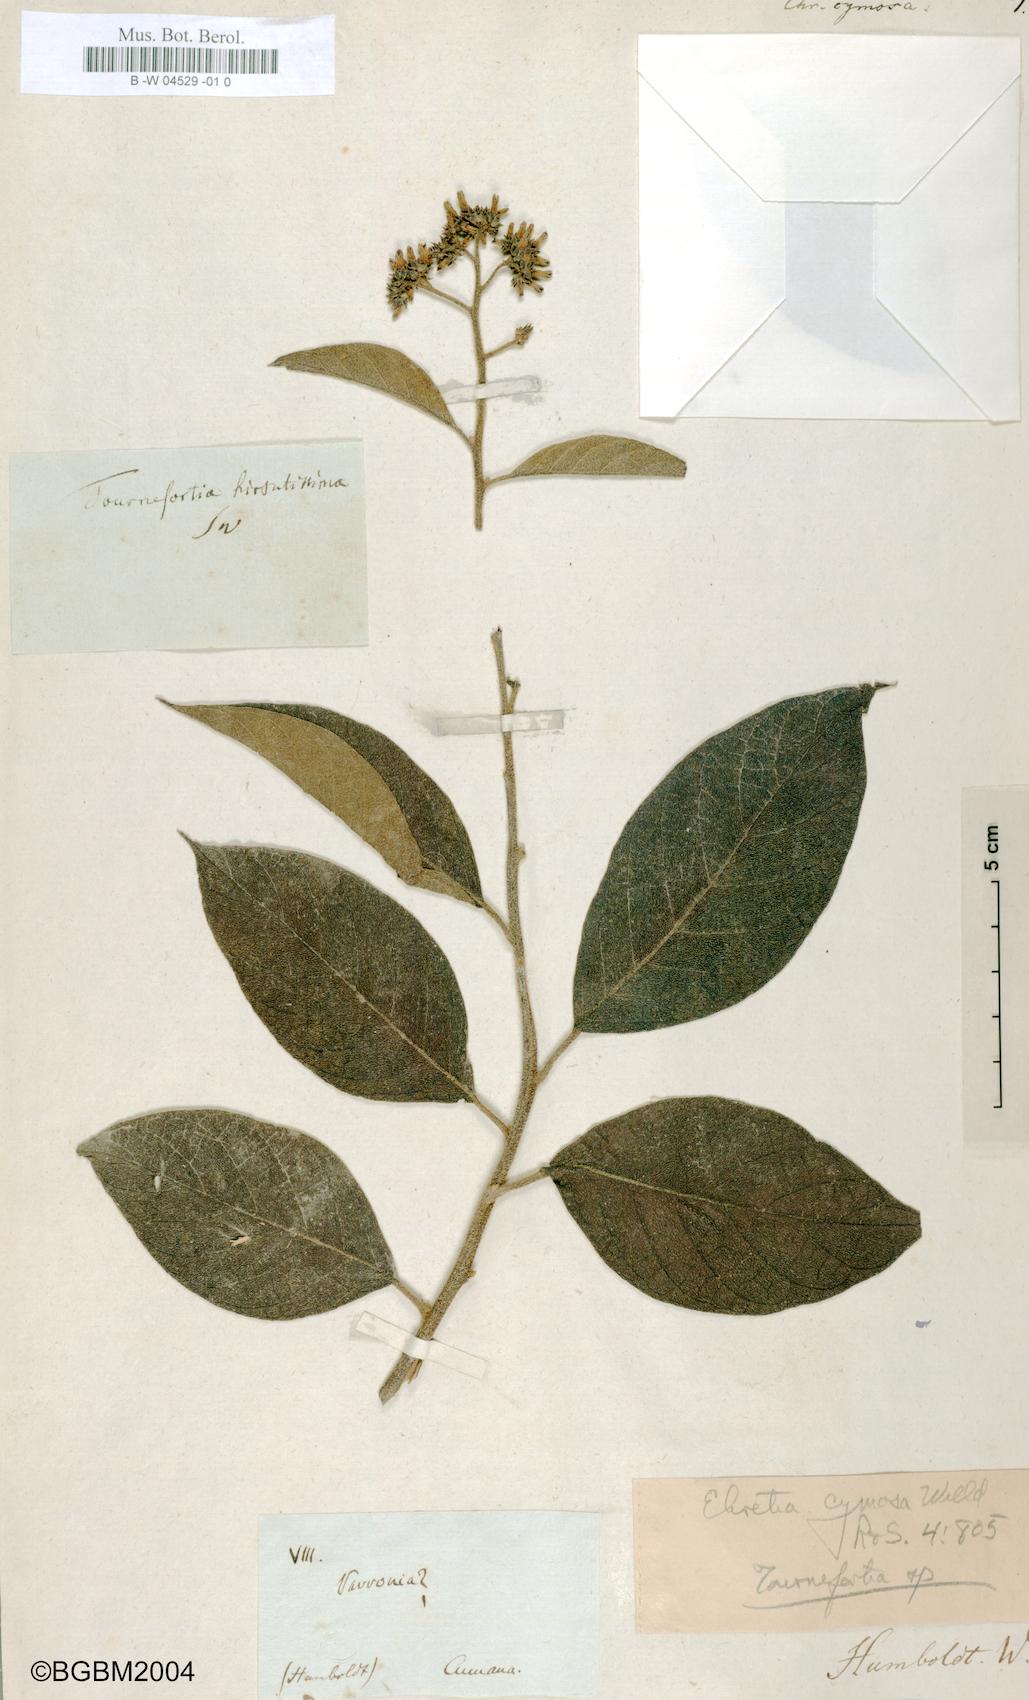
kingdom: Plantae
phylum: Tracheophyta
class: Magnoliopsida
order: Boraginales
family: Heliotropiaceae
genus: Heliotropium
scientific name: Heliotropium verdcourtii
